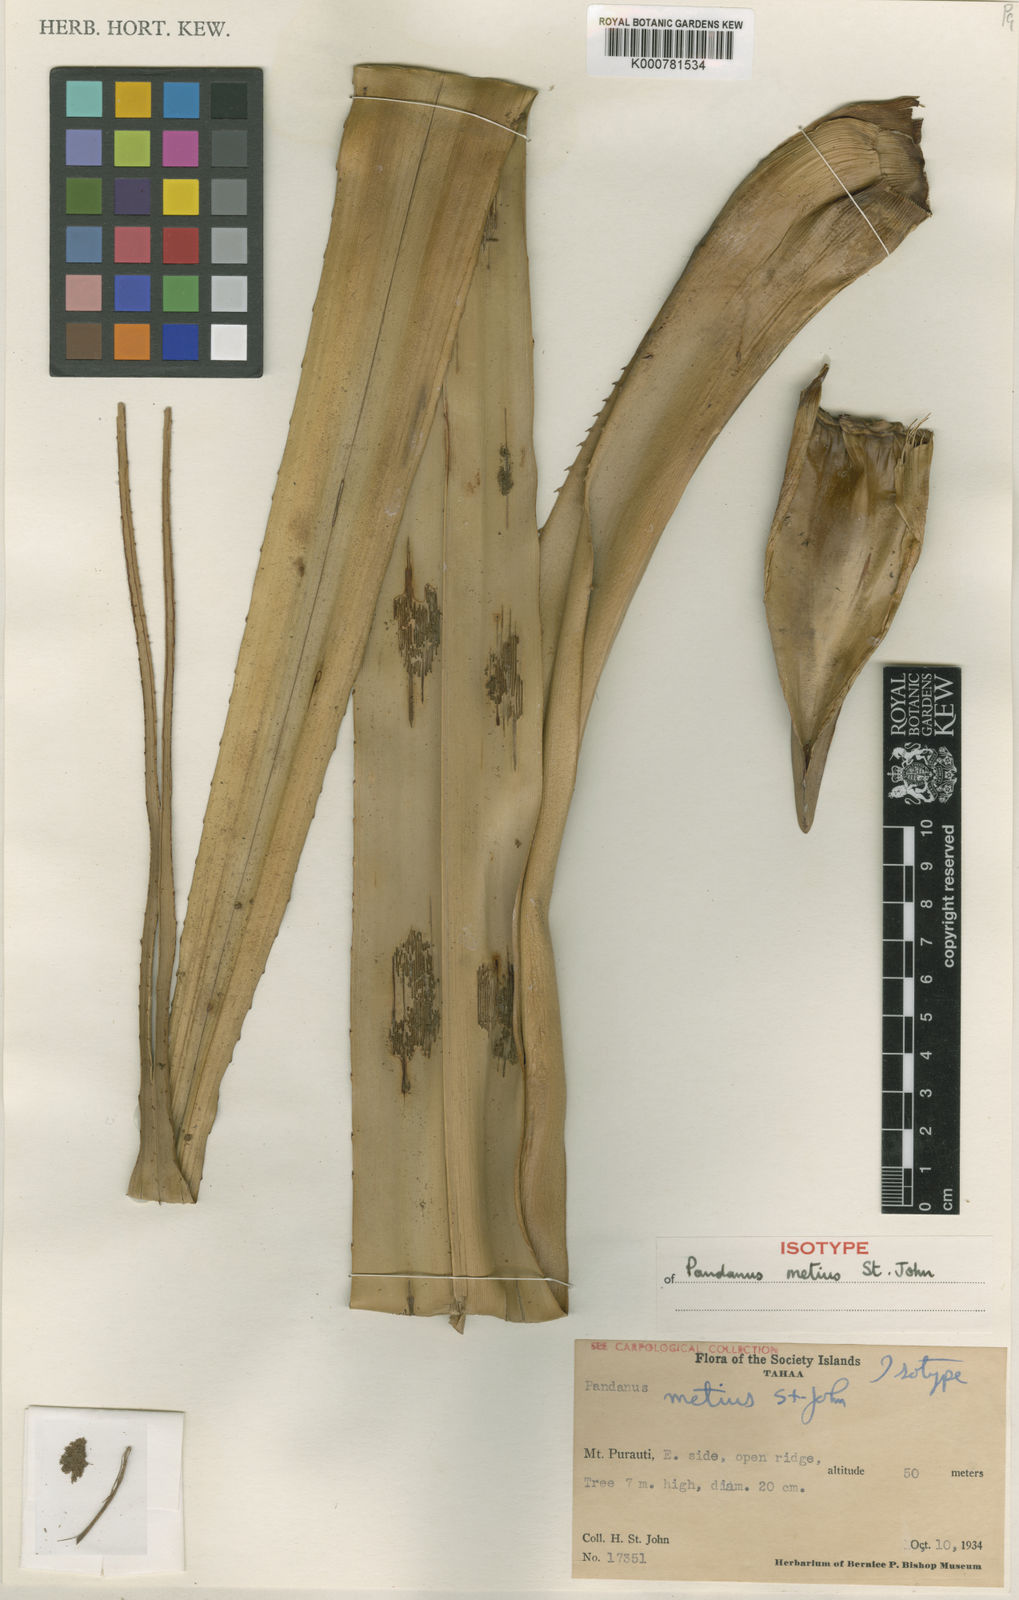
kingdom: Plantae
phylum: Tracheophyta
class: Liliopsida
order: Pandanales
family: Pandanaceae
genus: Pandanus
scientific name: Pandanus tectorius
